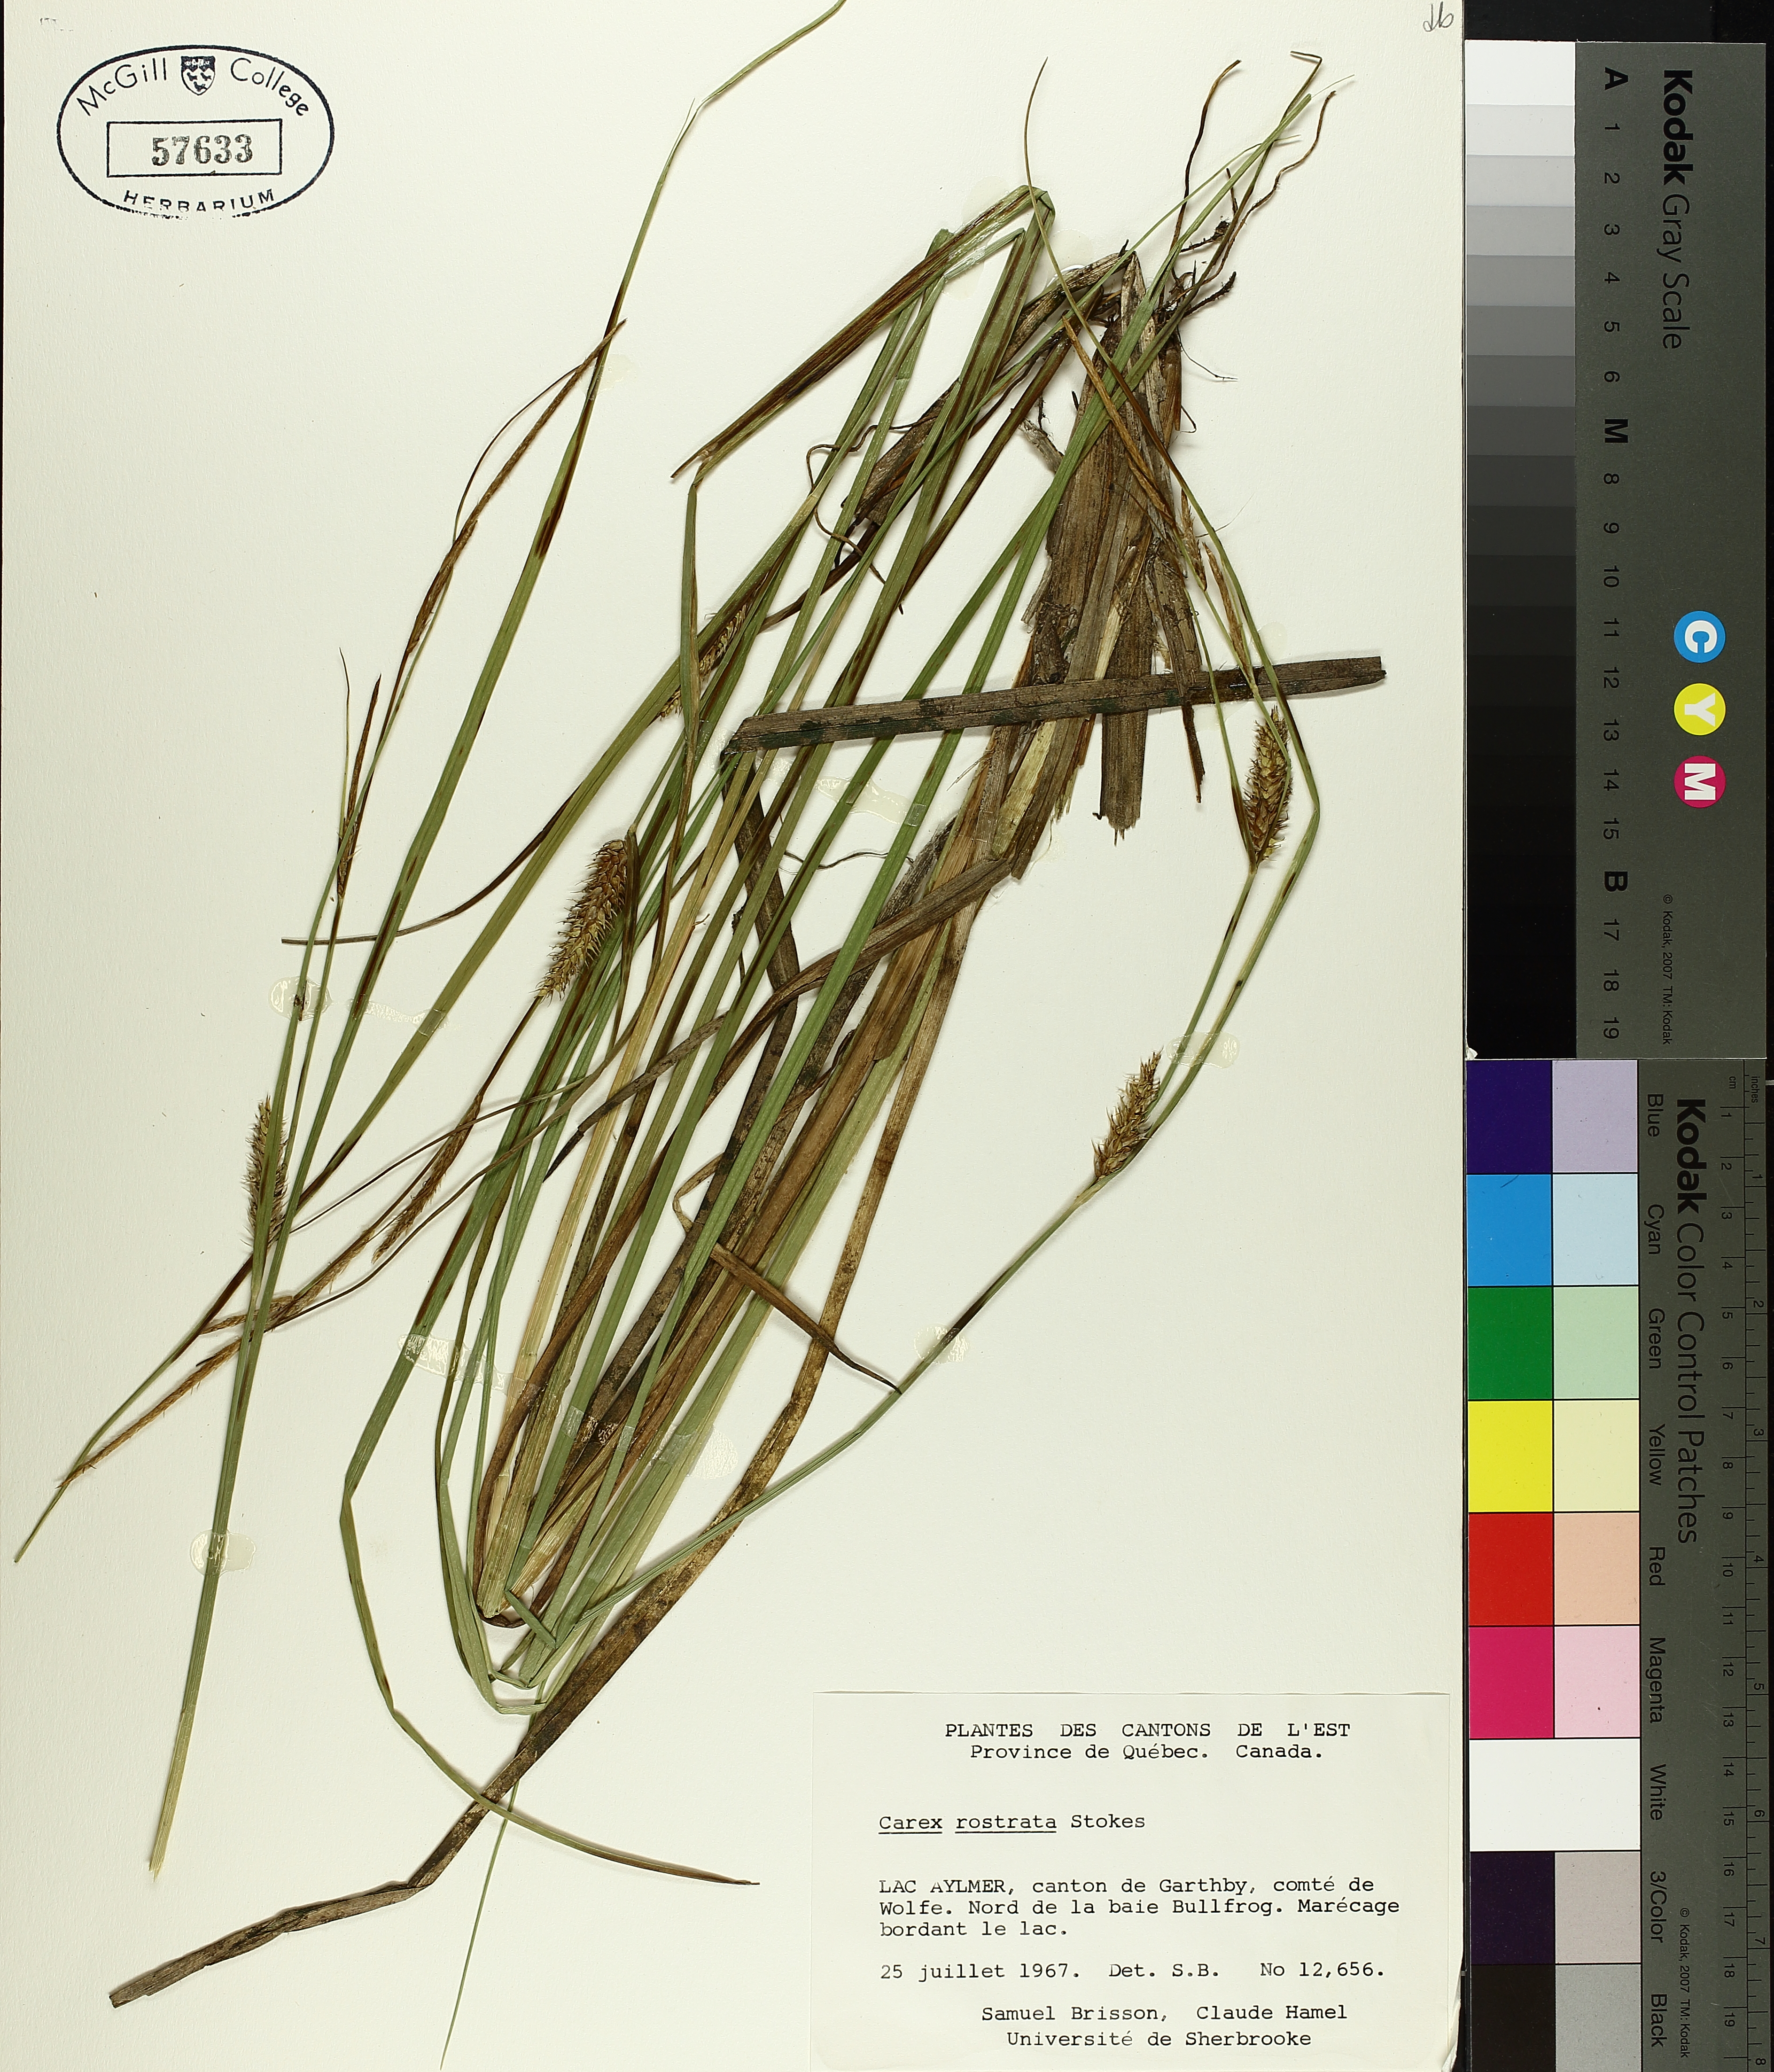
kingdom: Plantae
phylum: Tracheophyta
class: Liliopsida
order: Poales
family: Cyperaceae
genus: Carex
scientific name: Carex rostrata
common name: Bottle sedge
